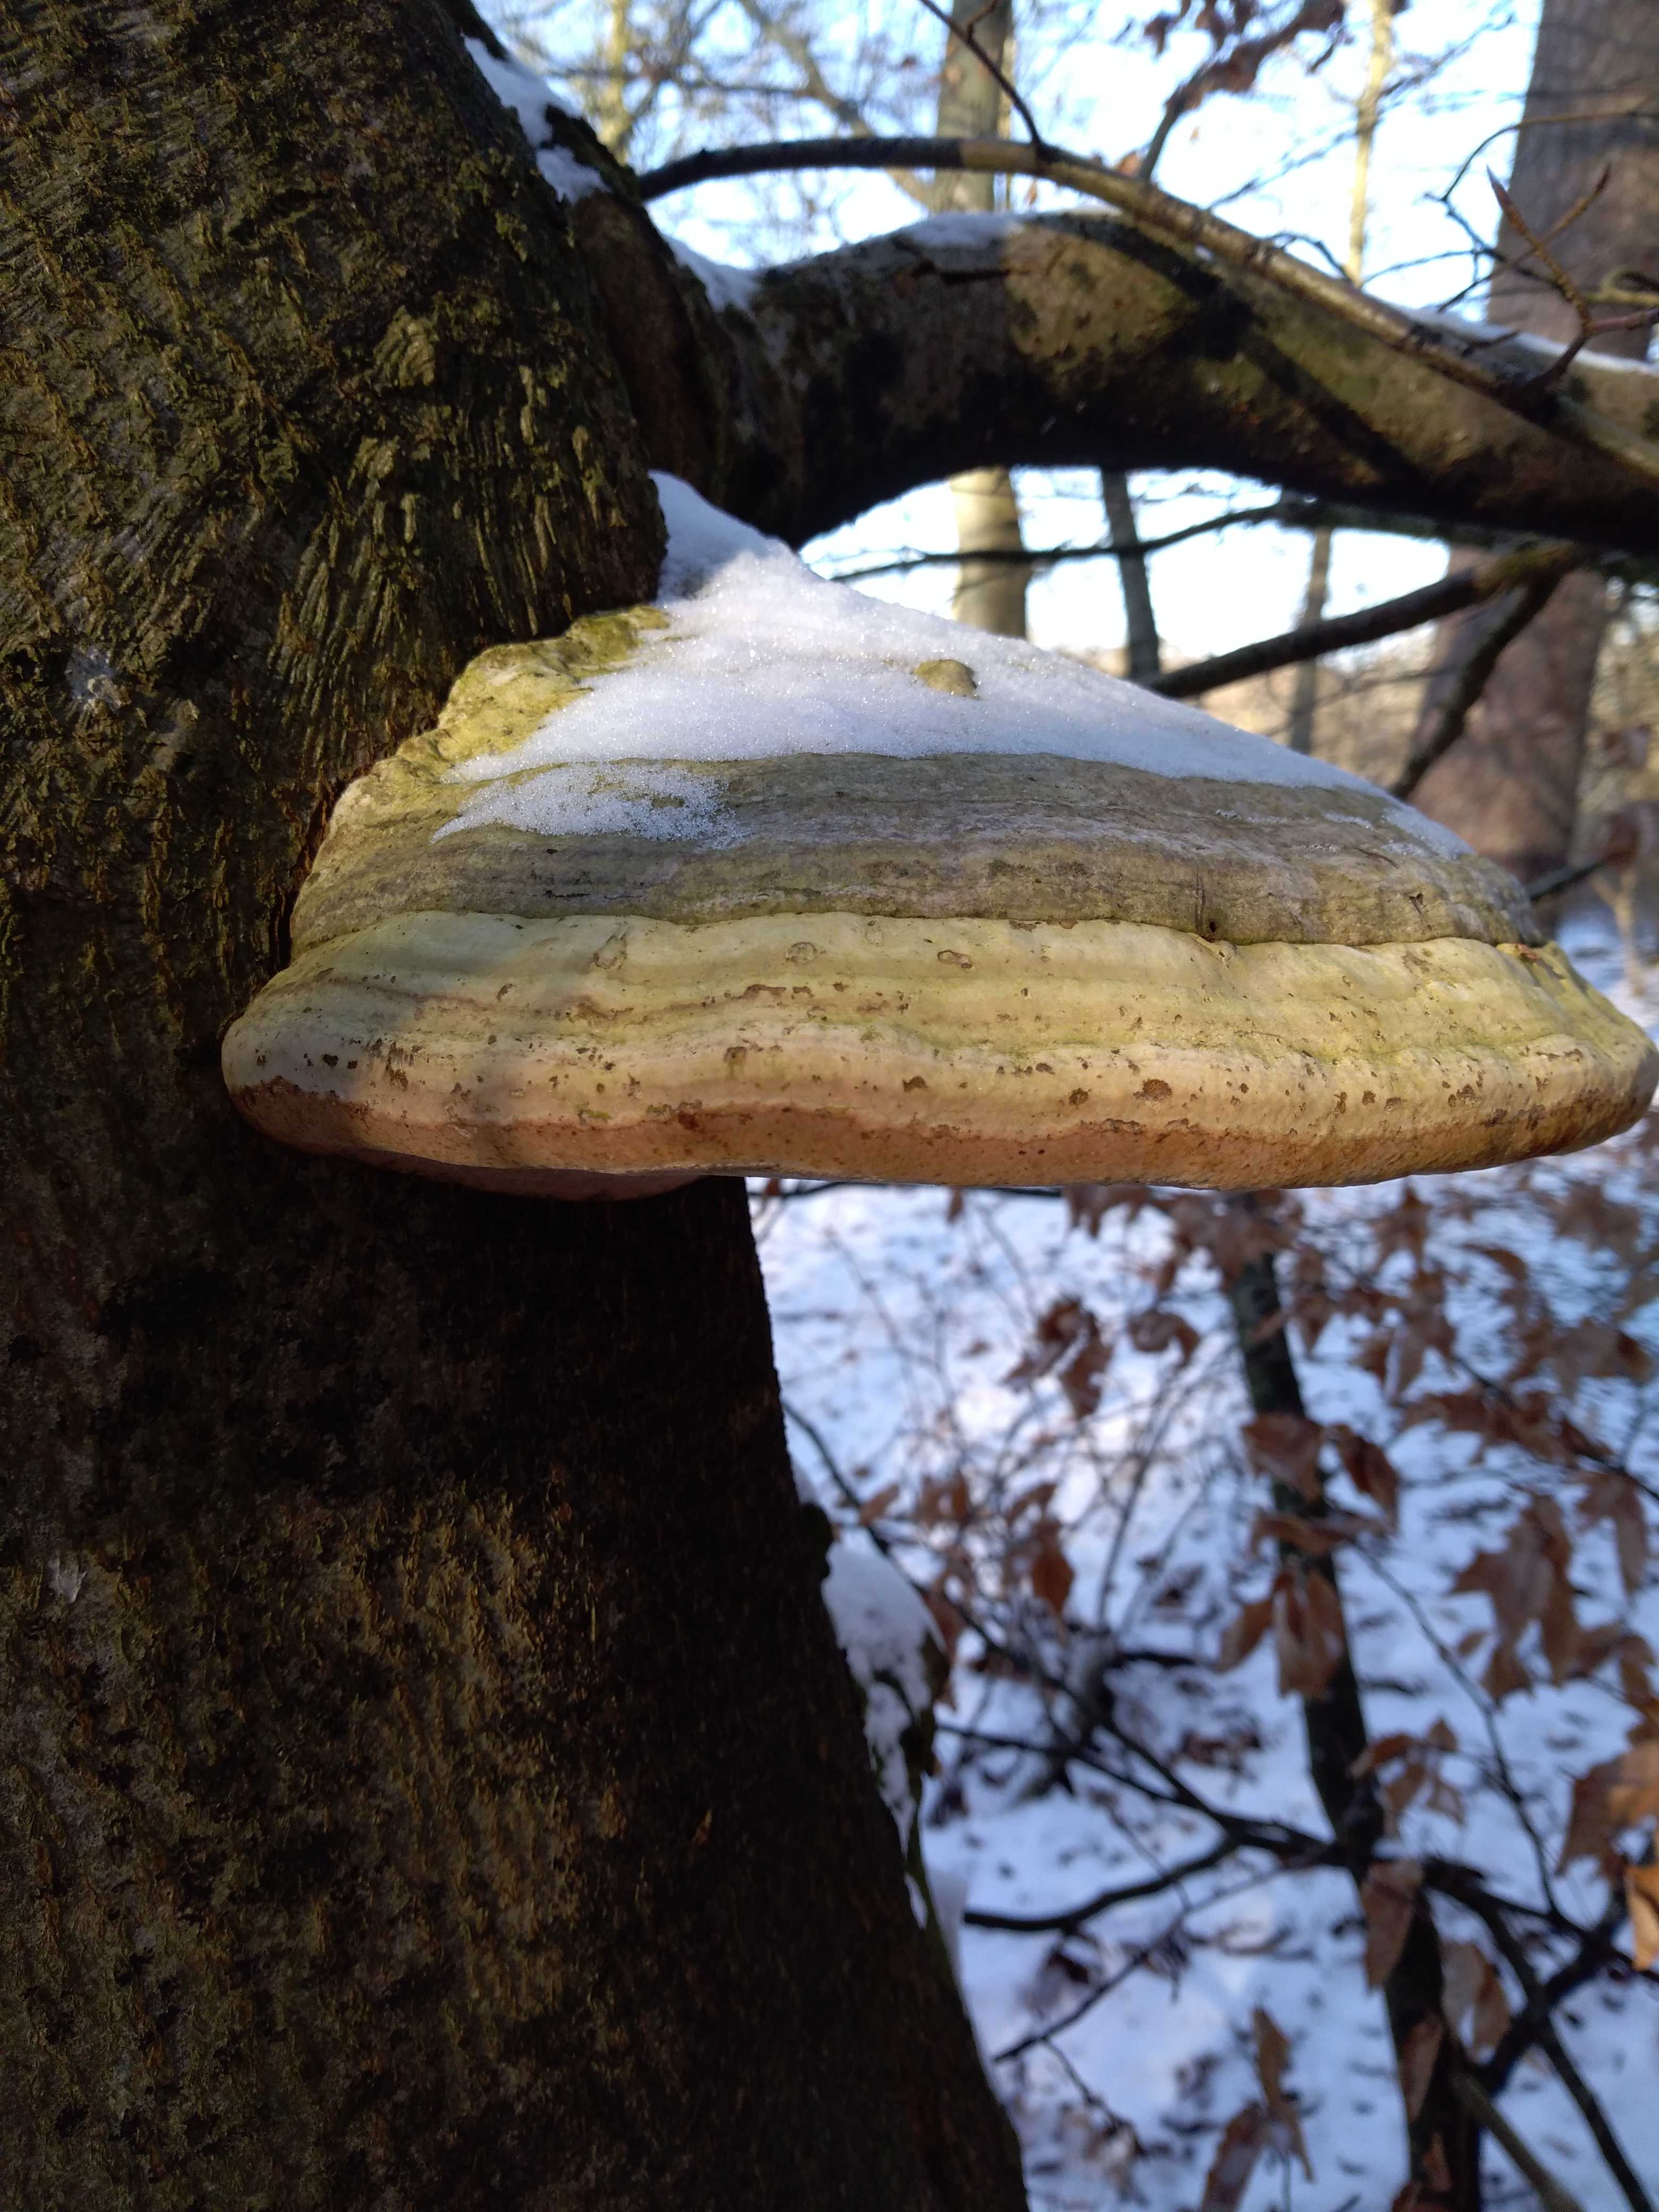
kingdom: Fungi
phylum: Basidiomycota
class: Agaricomycetes
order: Polyporales
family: Polyporaceae
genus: Fomes
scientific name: Fomes fomentarius
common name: tøndersvamp
